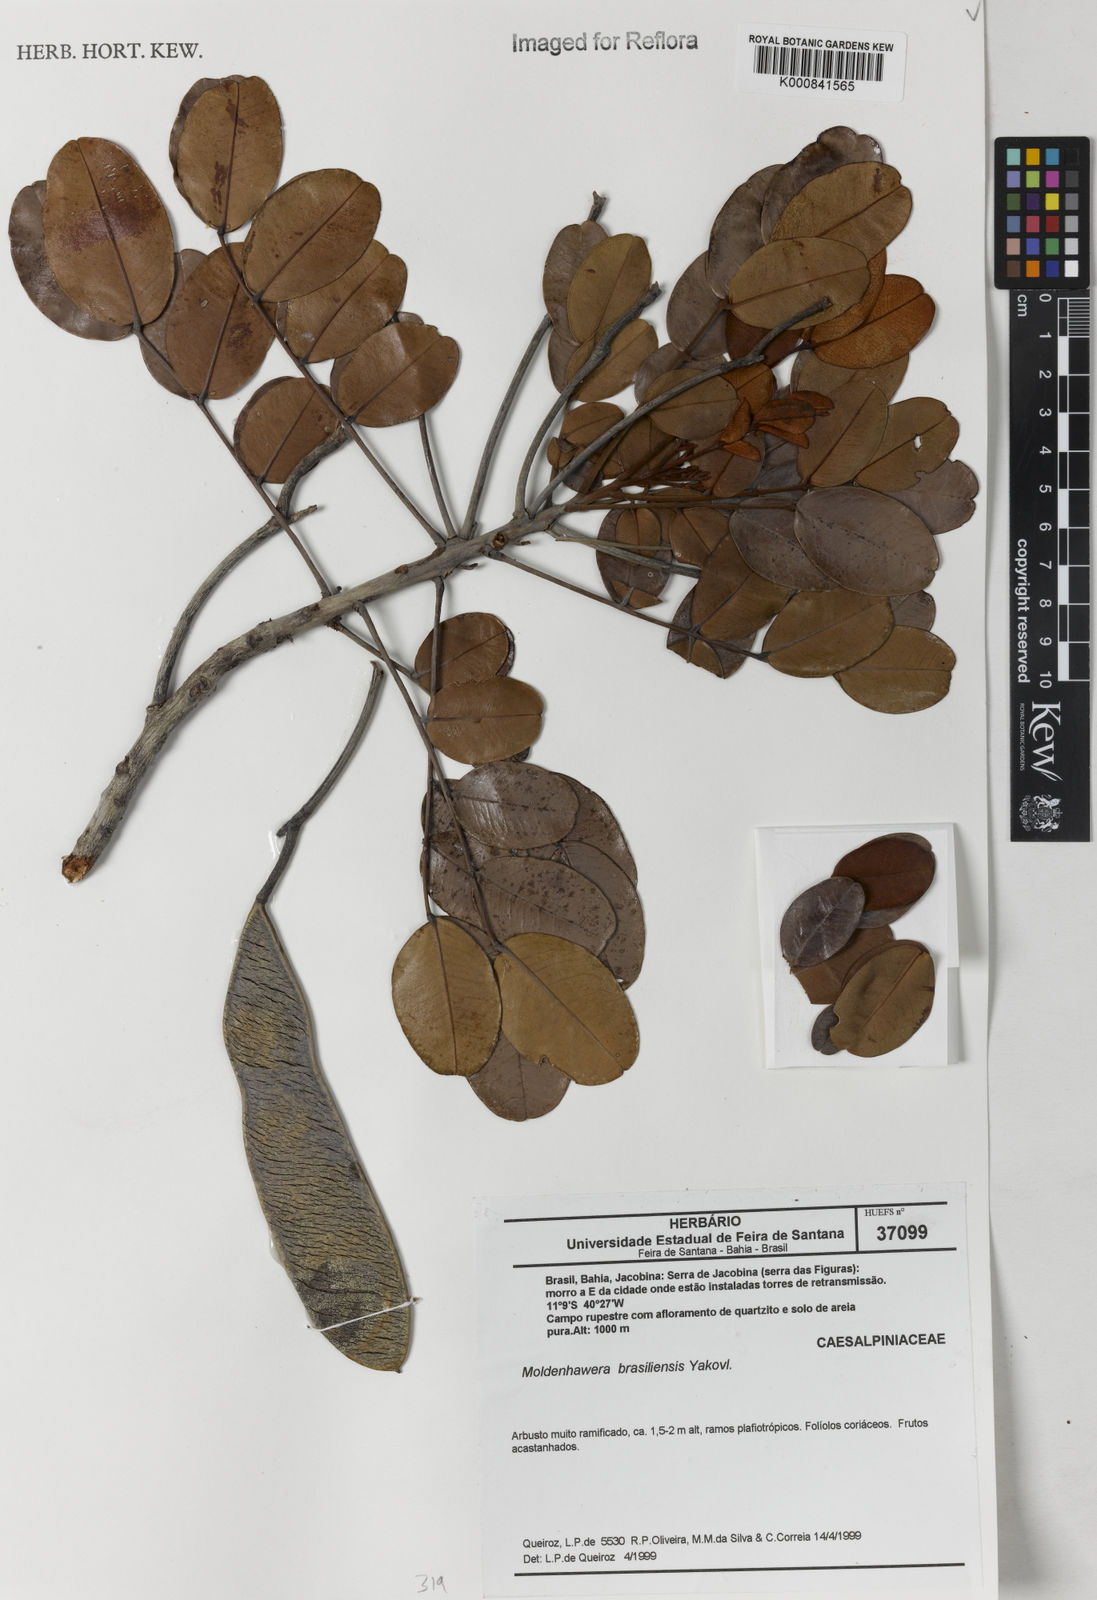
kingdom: Plantae
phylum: Tracheophyta
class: Magnoliopsida
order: Fabales
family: Fabaceae
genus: Moldenhawera
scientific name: Moldenhawera brasiliensis
